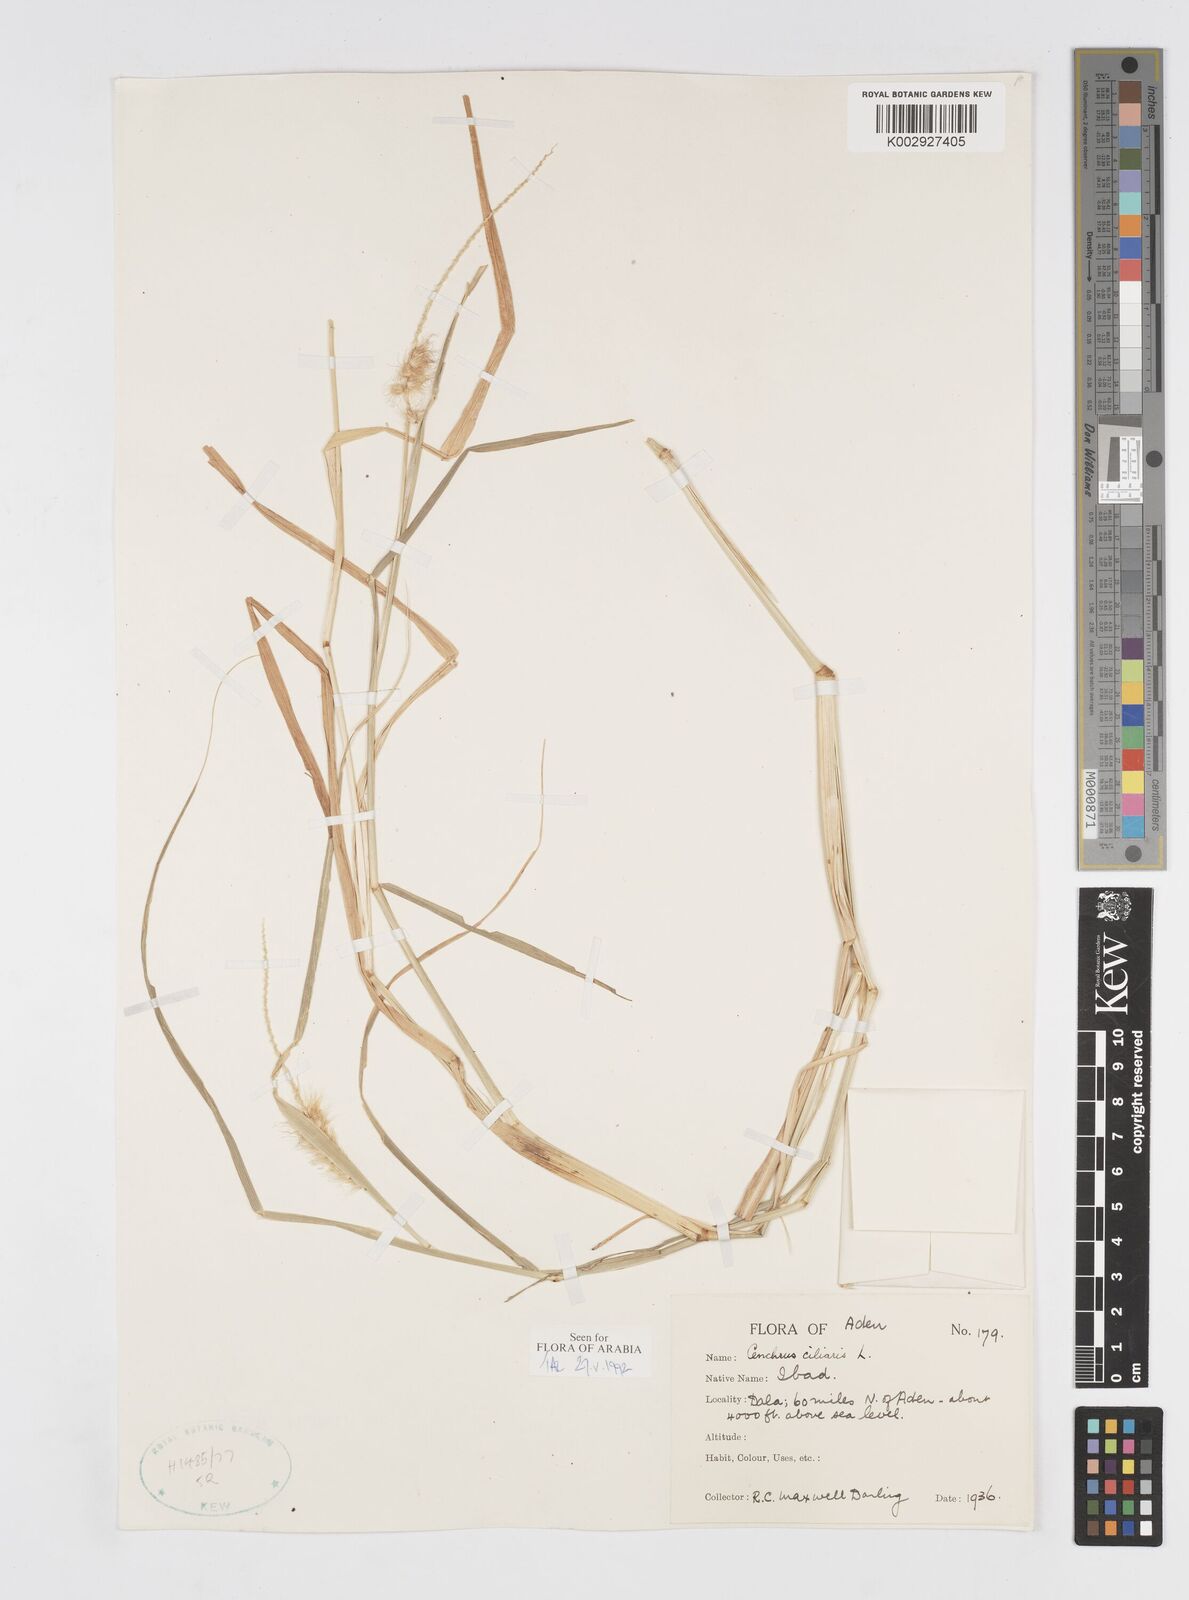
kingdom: Plantae
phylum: Tracheophyta
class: Liliopsida
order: Poales
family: Poaceae
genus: Cenchrus
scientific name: Cenchrus ciliaris
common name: Buffelgrass
